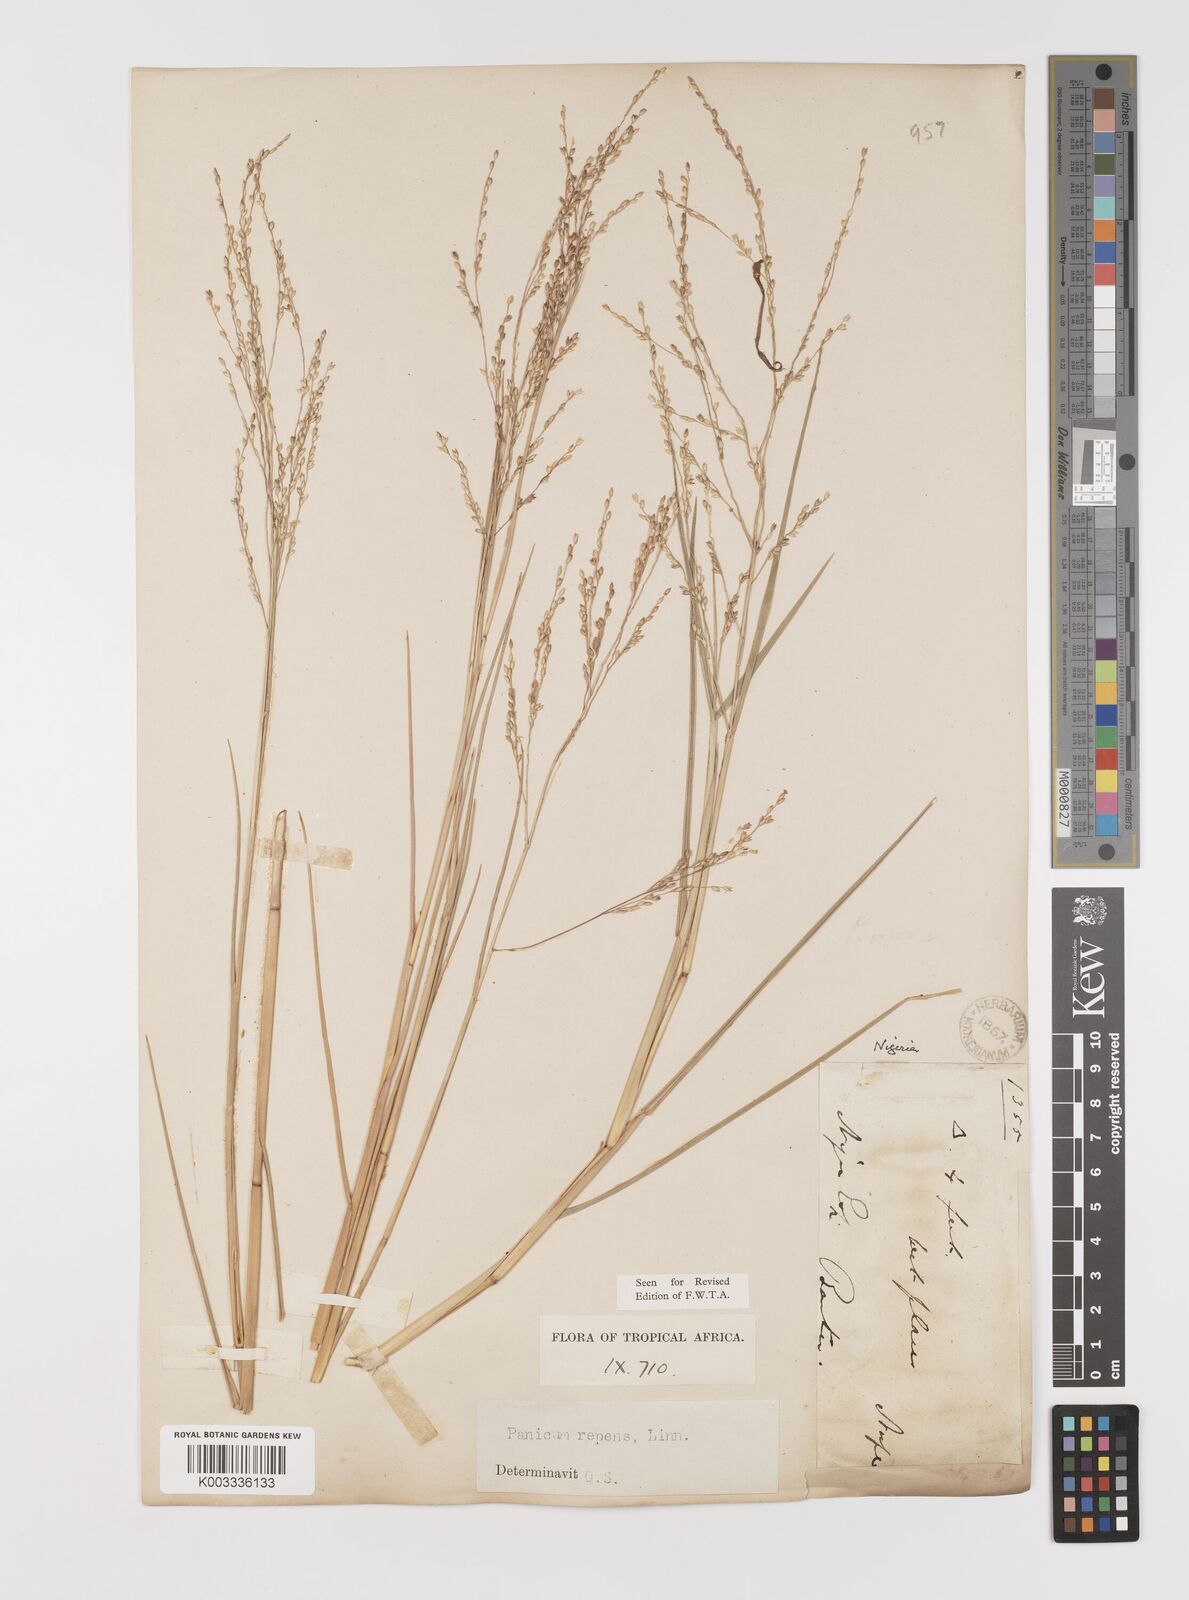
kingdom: Plantae
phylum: Tracheophyta
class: Liliopsida
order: Poales
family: Poaceae
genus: Panicum
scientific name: Panicum repens
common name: Torpedo grass
